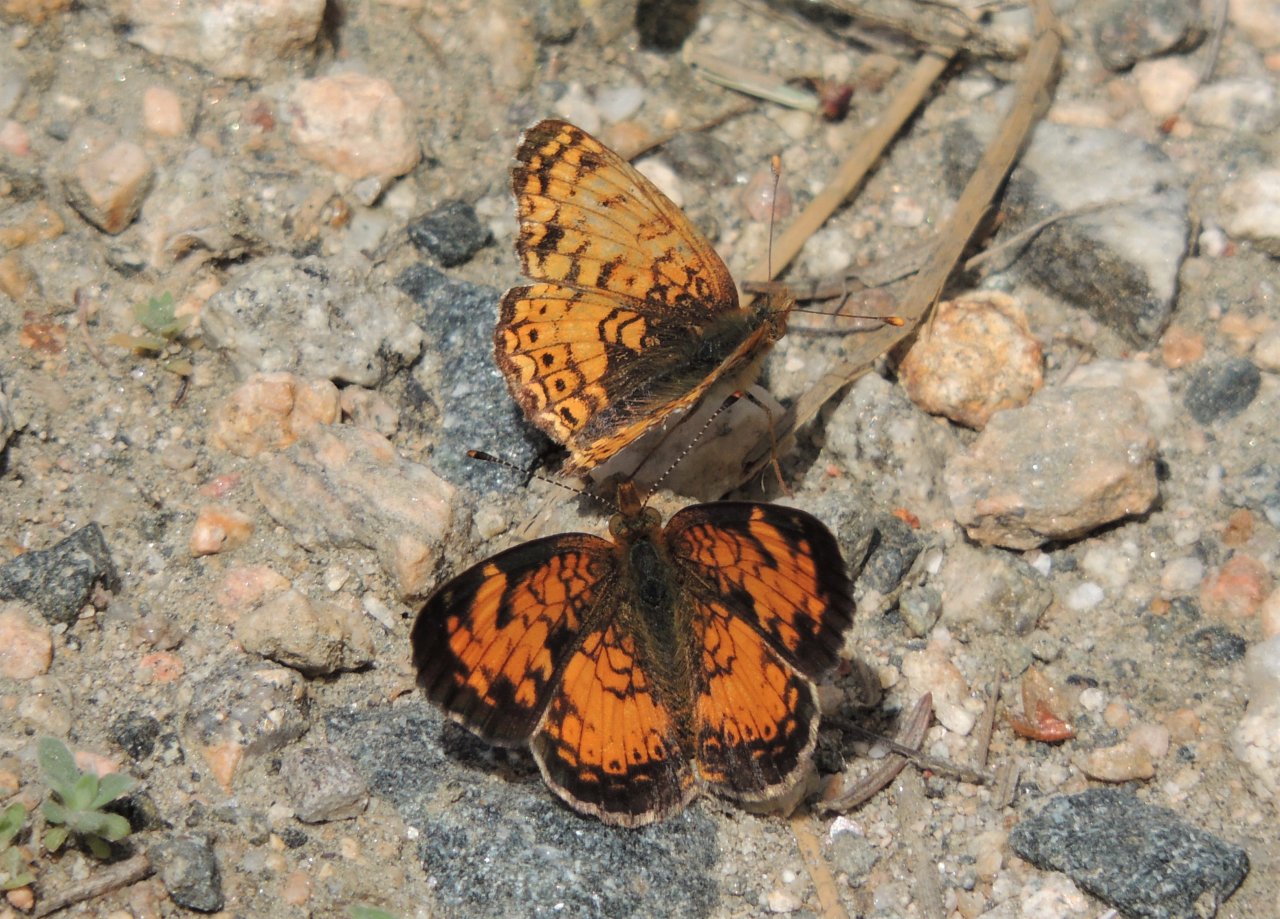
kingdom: Animalia
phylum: Arthropoda
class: Insecta
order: Lepidoptera
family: Nymphalidae
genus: Eresia
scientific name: Eresia aveyrona
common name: Mylitta Crescent
